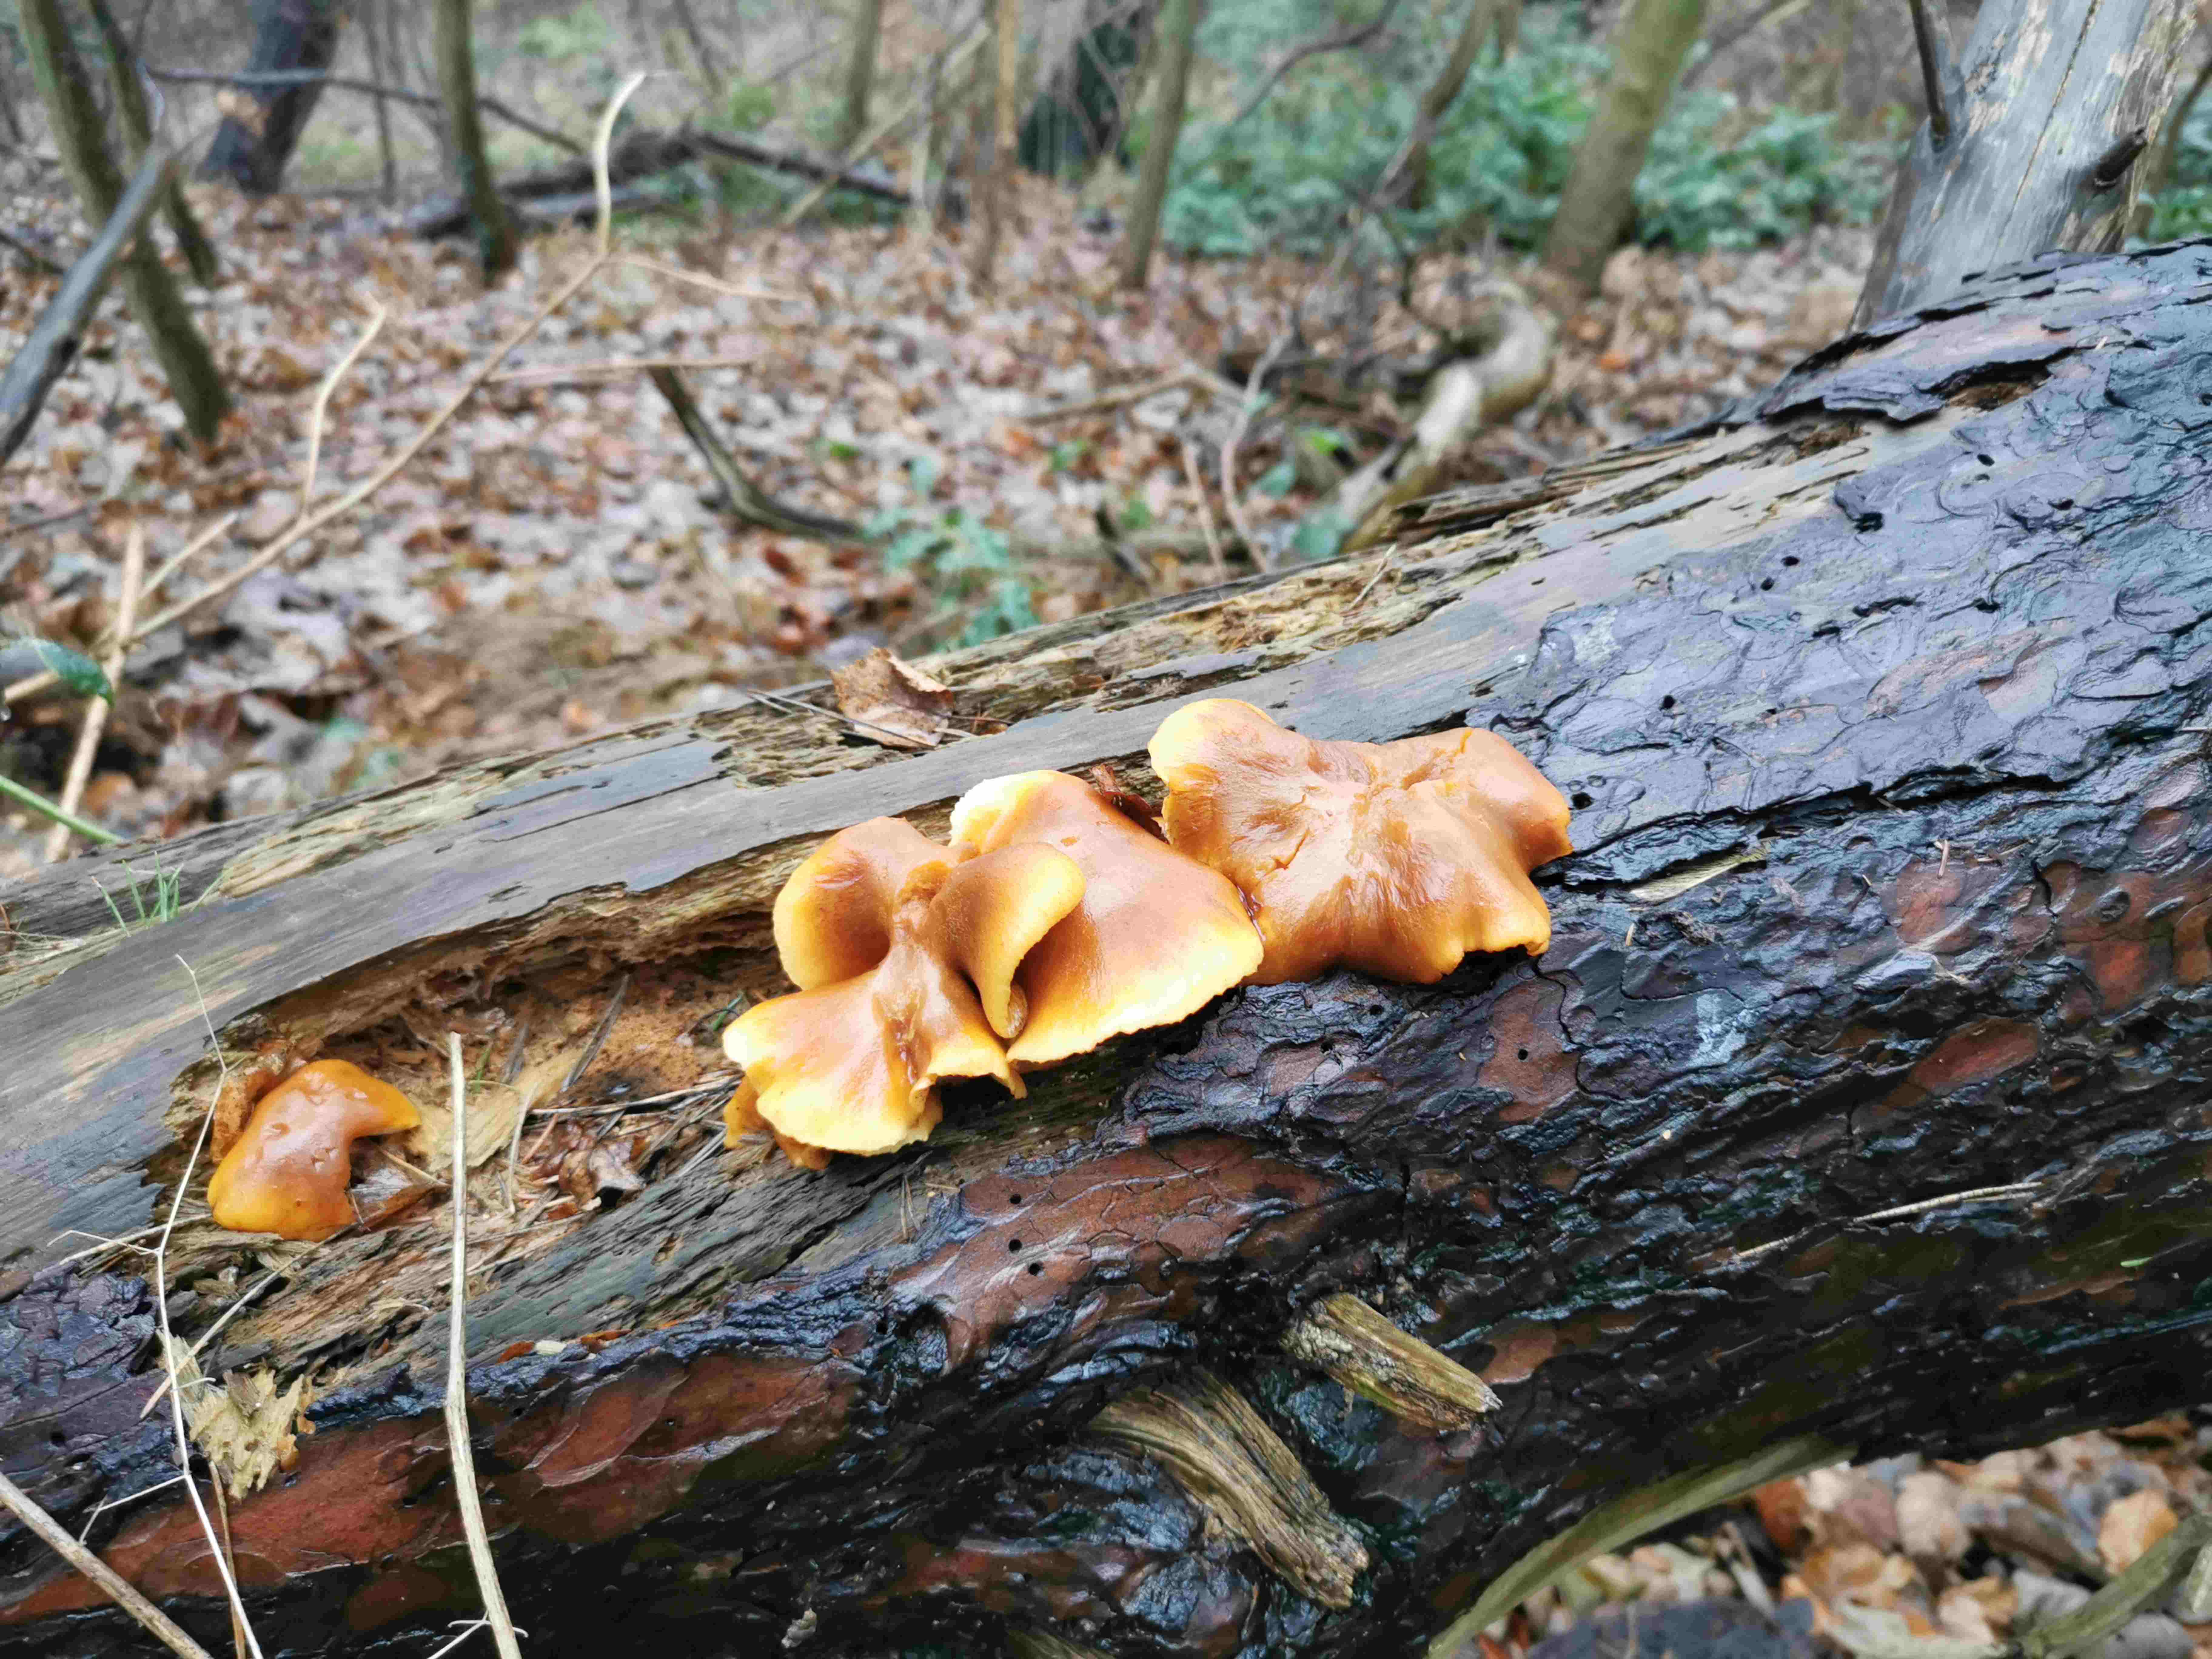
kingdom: Fungi
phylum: Basidiomycota
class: Agaricomycetes
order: Agaricales
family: Hymenogastraceae
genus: Gymnopilus
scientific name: Gymnopilus penetrans
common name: plettet flammehat
